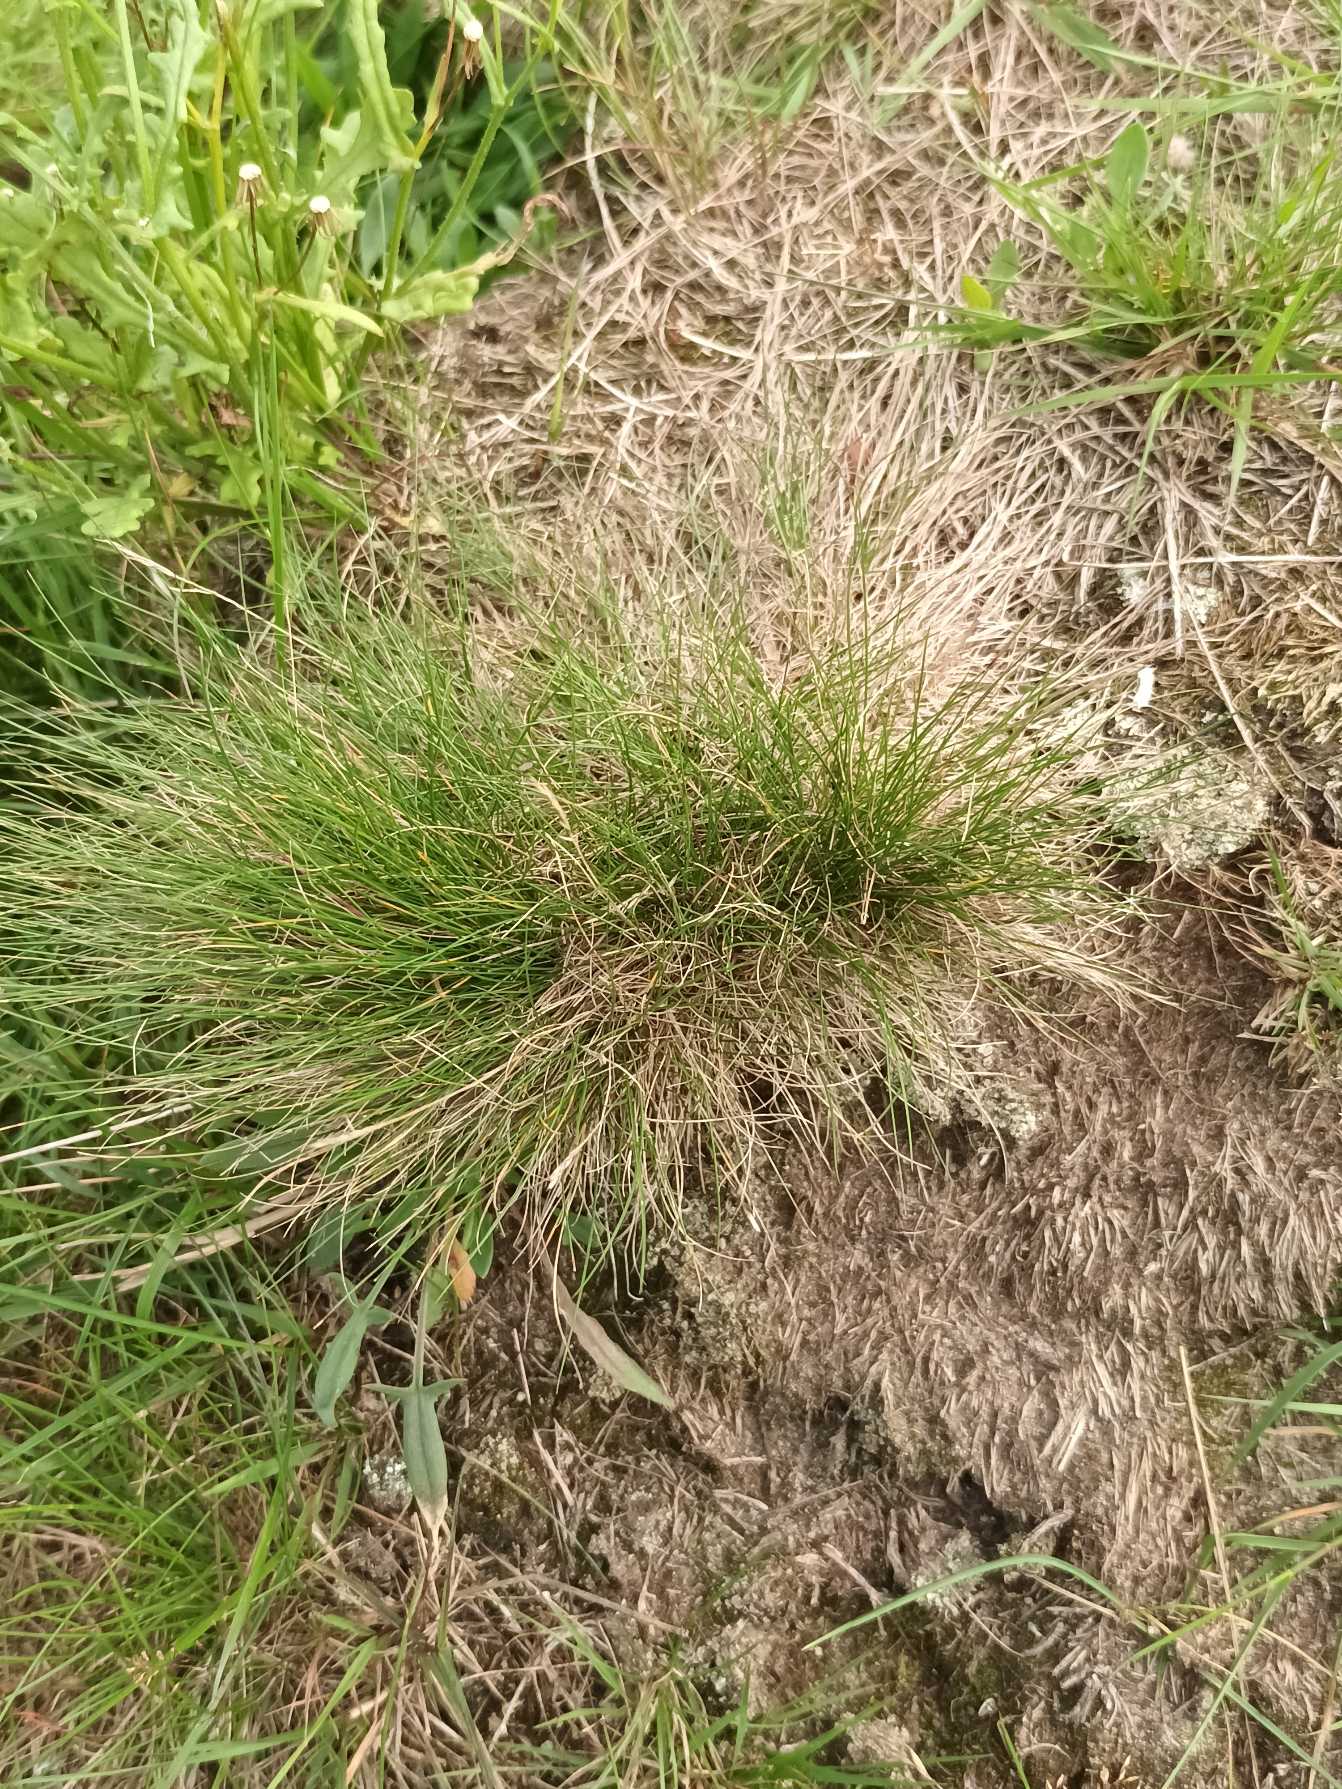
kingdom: Plantae
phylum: Tracheophyta
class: Liliopsida
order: Poales
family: Poaceae
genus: Festuca
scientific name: Festuca ovina
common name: Fåre-svingel
